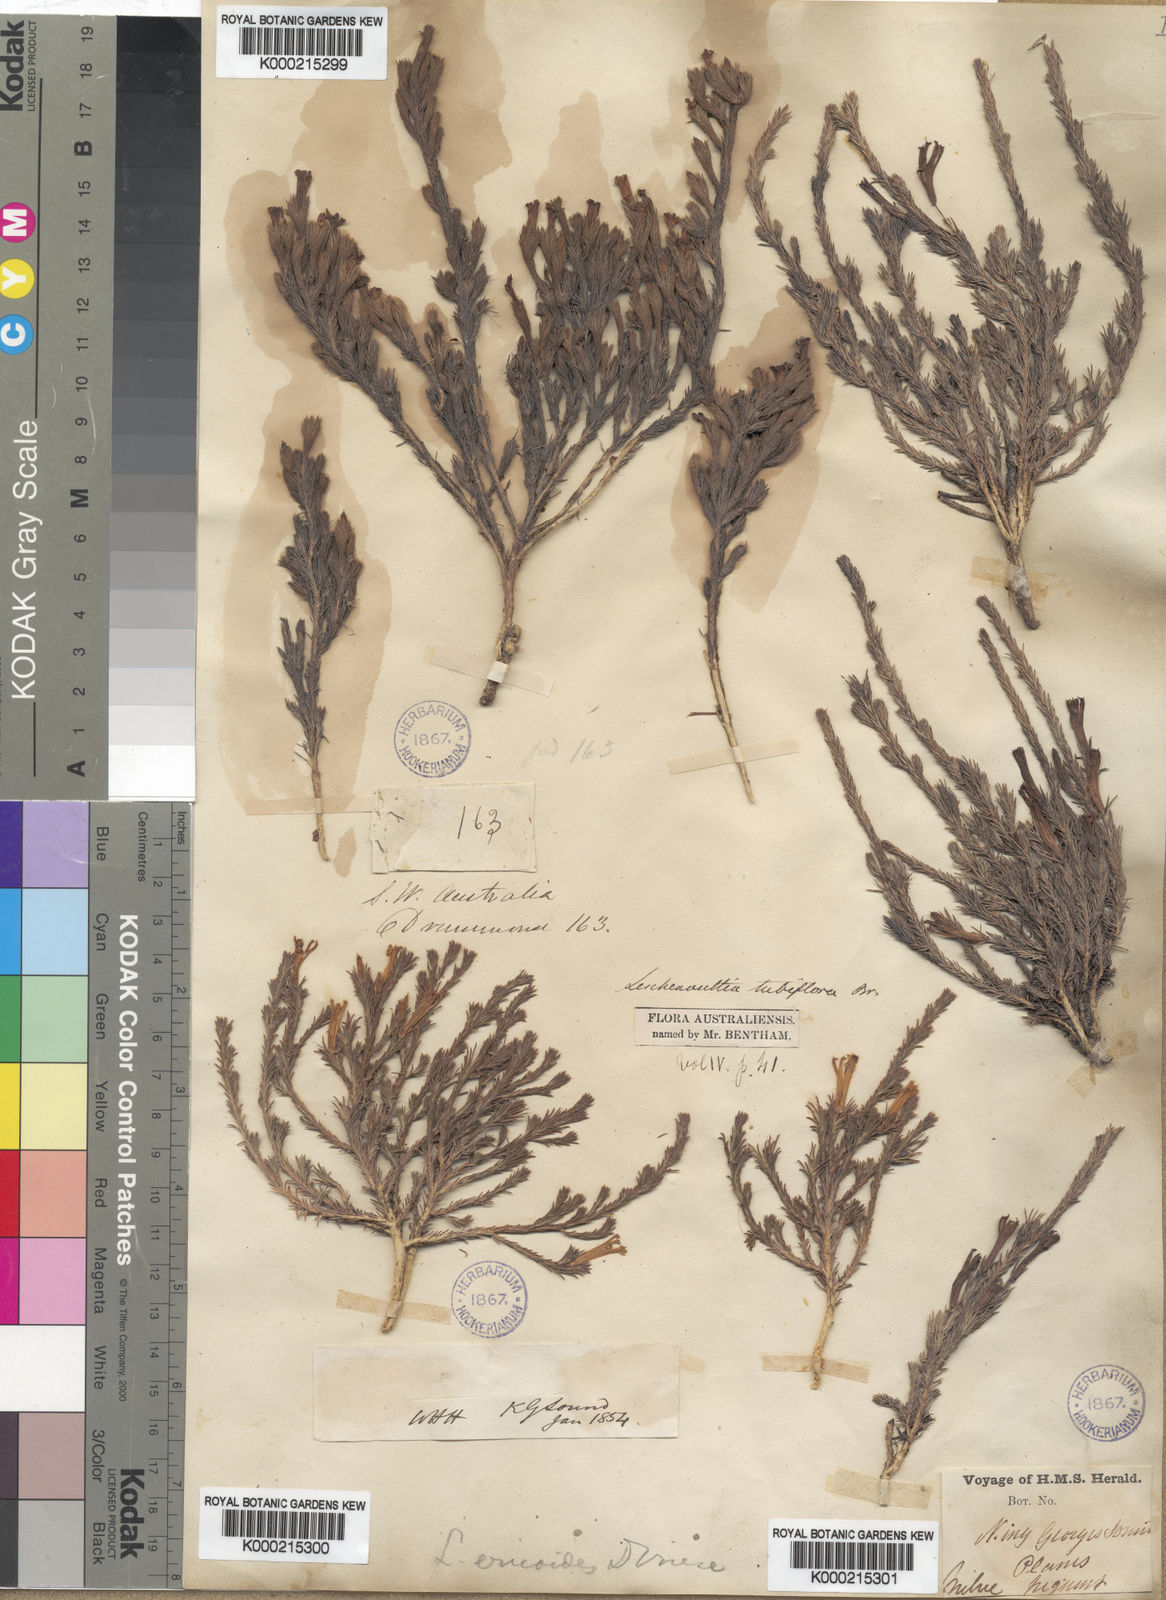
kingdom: Plantae
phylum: Tracheophyta
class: Magnoliopsida
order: Asterales
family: Goodeniaceae
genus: Leschenaultia
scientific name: Leschenaultia tubiflora
